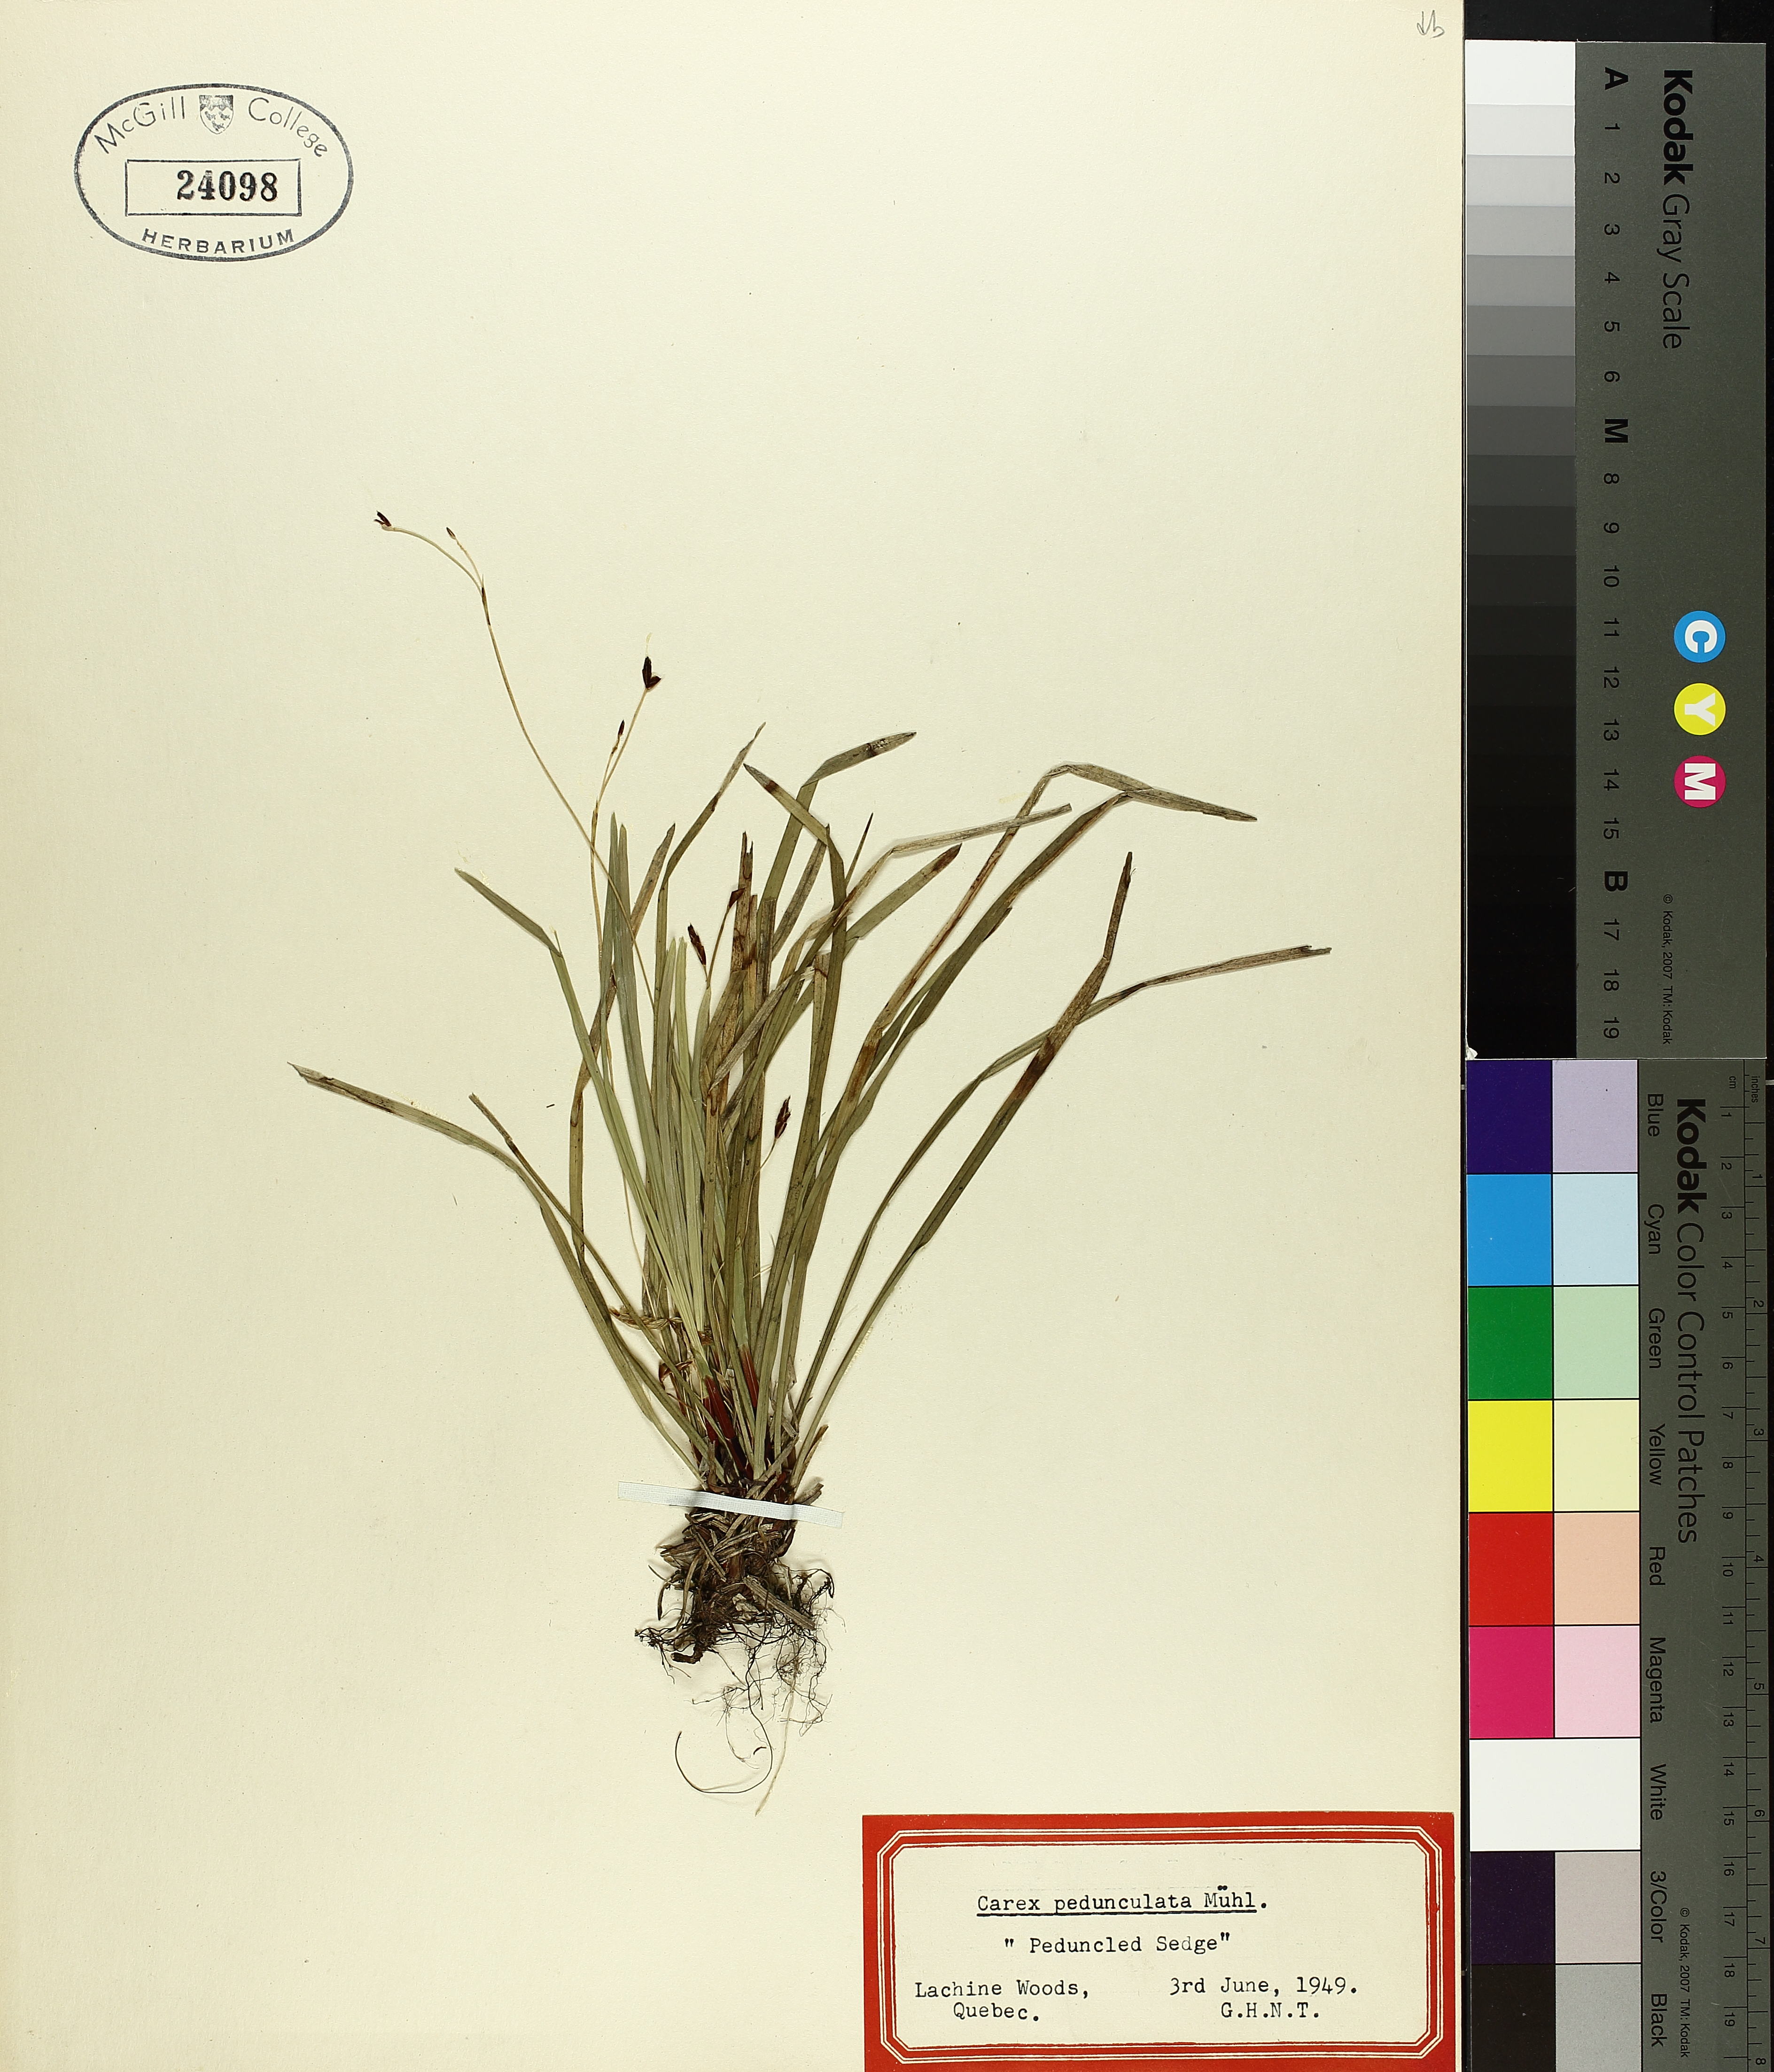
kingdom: Plantae
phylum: Tracheophyta
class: Liliopsida
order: Poales
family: Cyperaceae
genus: Carex
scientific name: Carex pedunculata
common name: Pedunculate sedge
